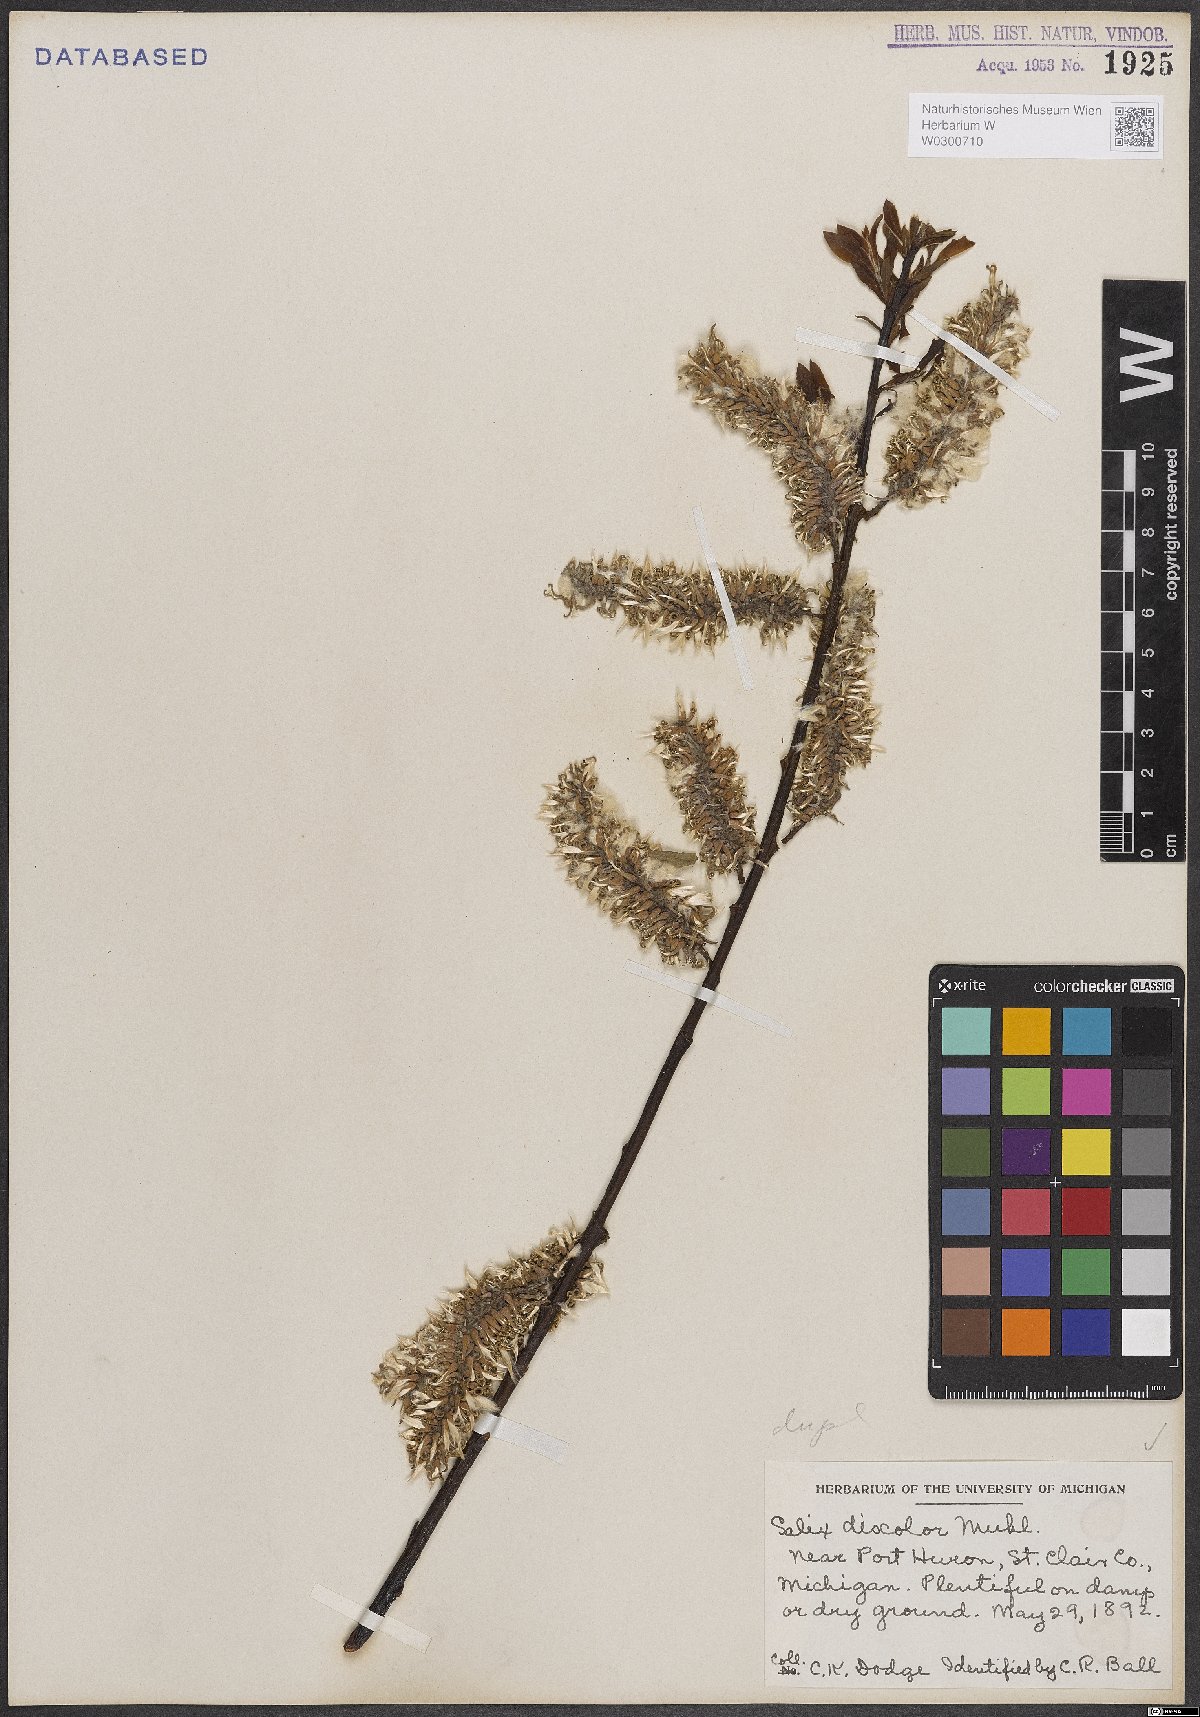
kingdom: Plantae
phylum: Tracheophyta
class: Magnoliopsida
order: Malpighiales
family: Salicaceae
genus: Salix
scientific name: Salix discolor
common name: Glaucous willow
